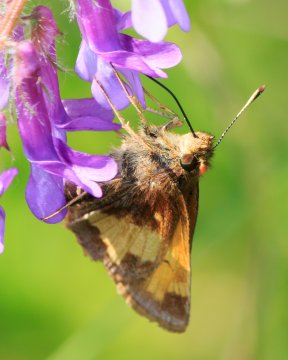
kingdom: Animalia
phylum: Arthropoda
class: Insecta
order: Lepidoptera
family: Hesperiidae
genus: Lon
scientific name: Lon hobomok
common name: Hobomok Skipper
